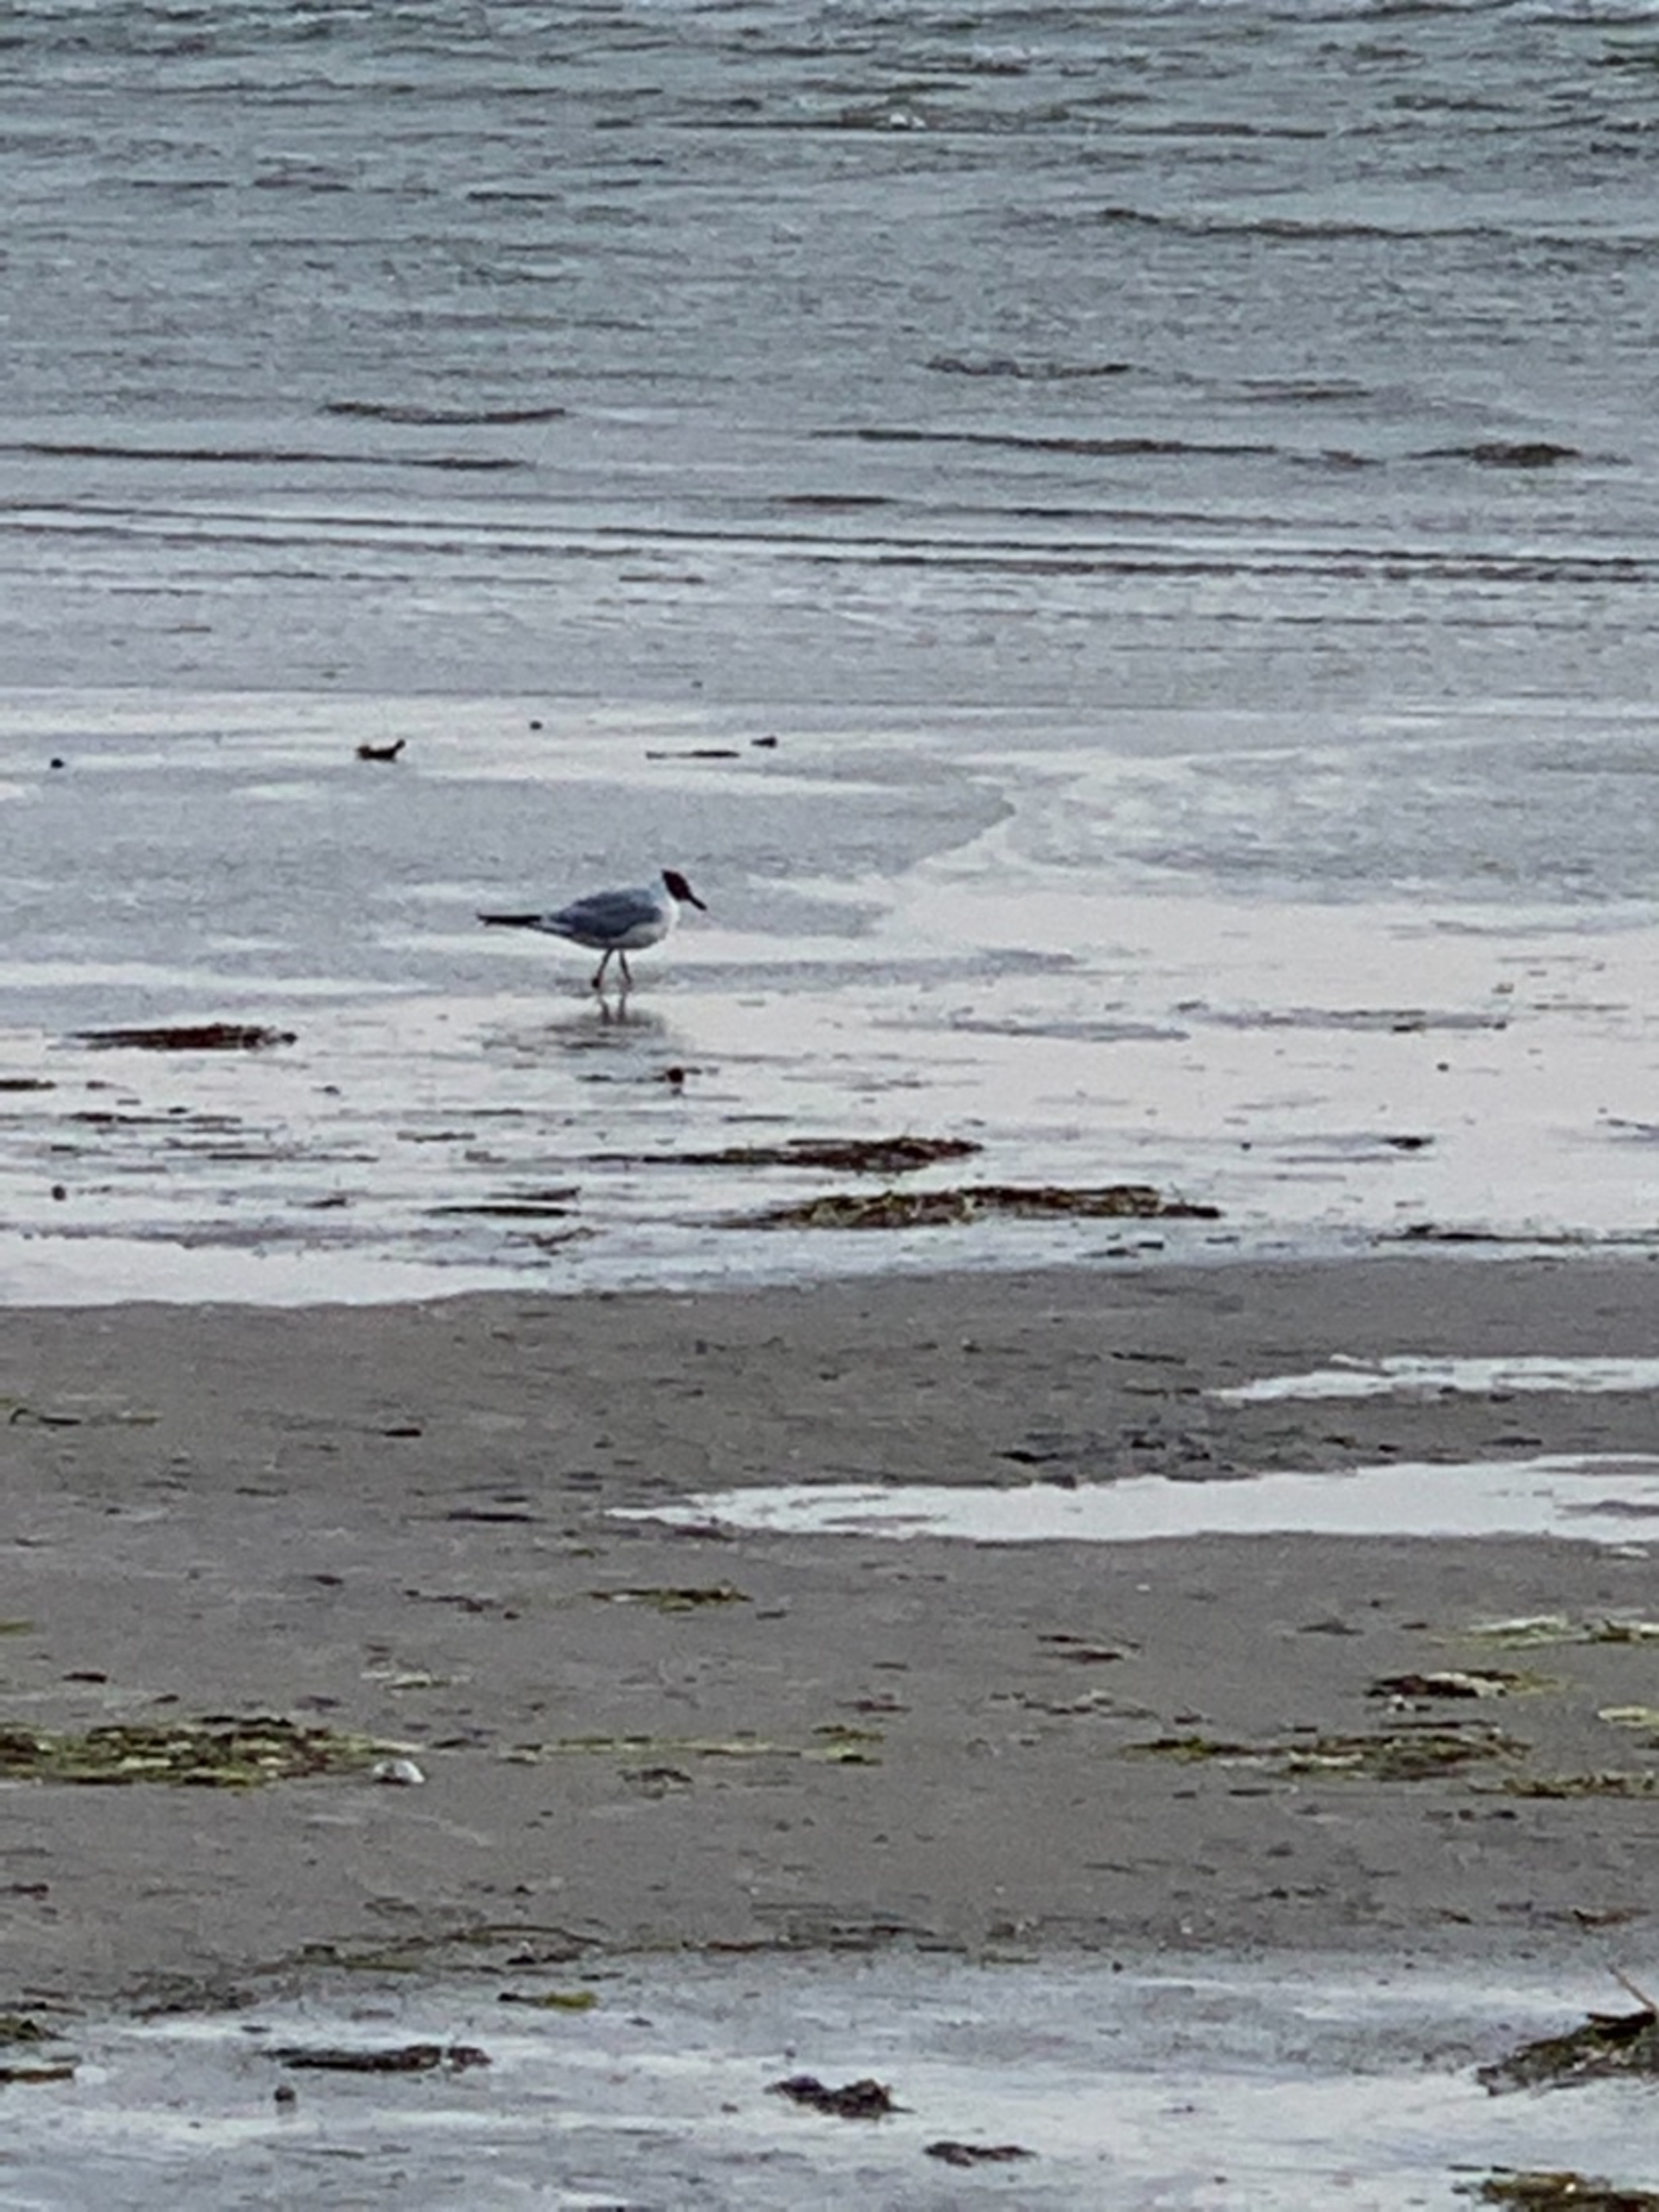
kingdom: Animalia
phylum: Chordata
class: Aves
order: Charadriiformes
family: Laridae
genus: Chroicocephalus
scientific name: Chroicocephalus ridibundus
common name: Hættemåge
